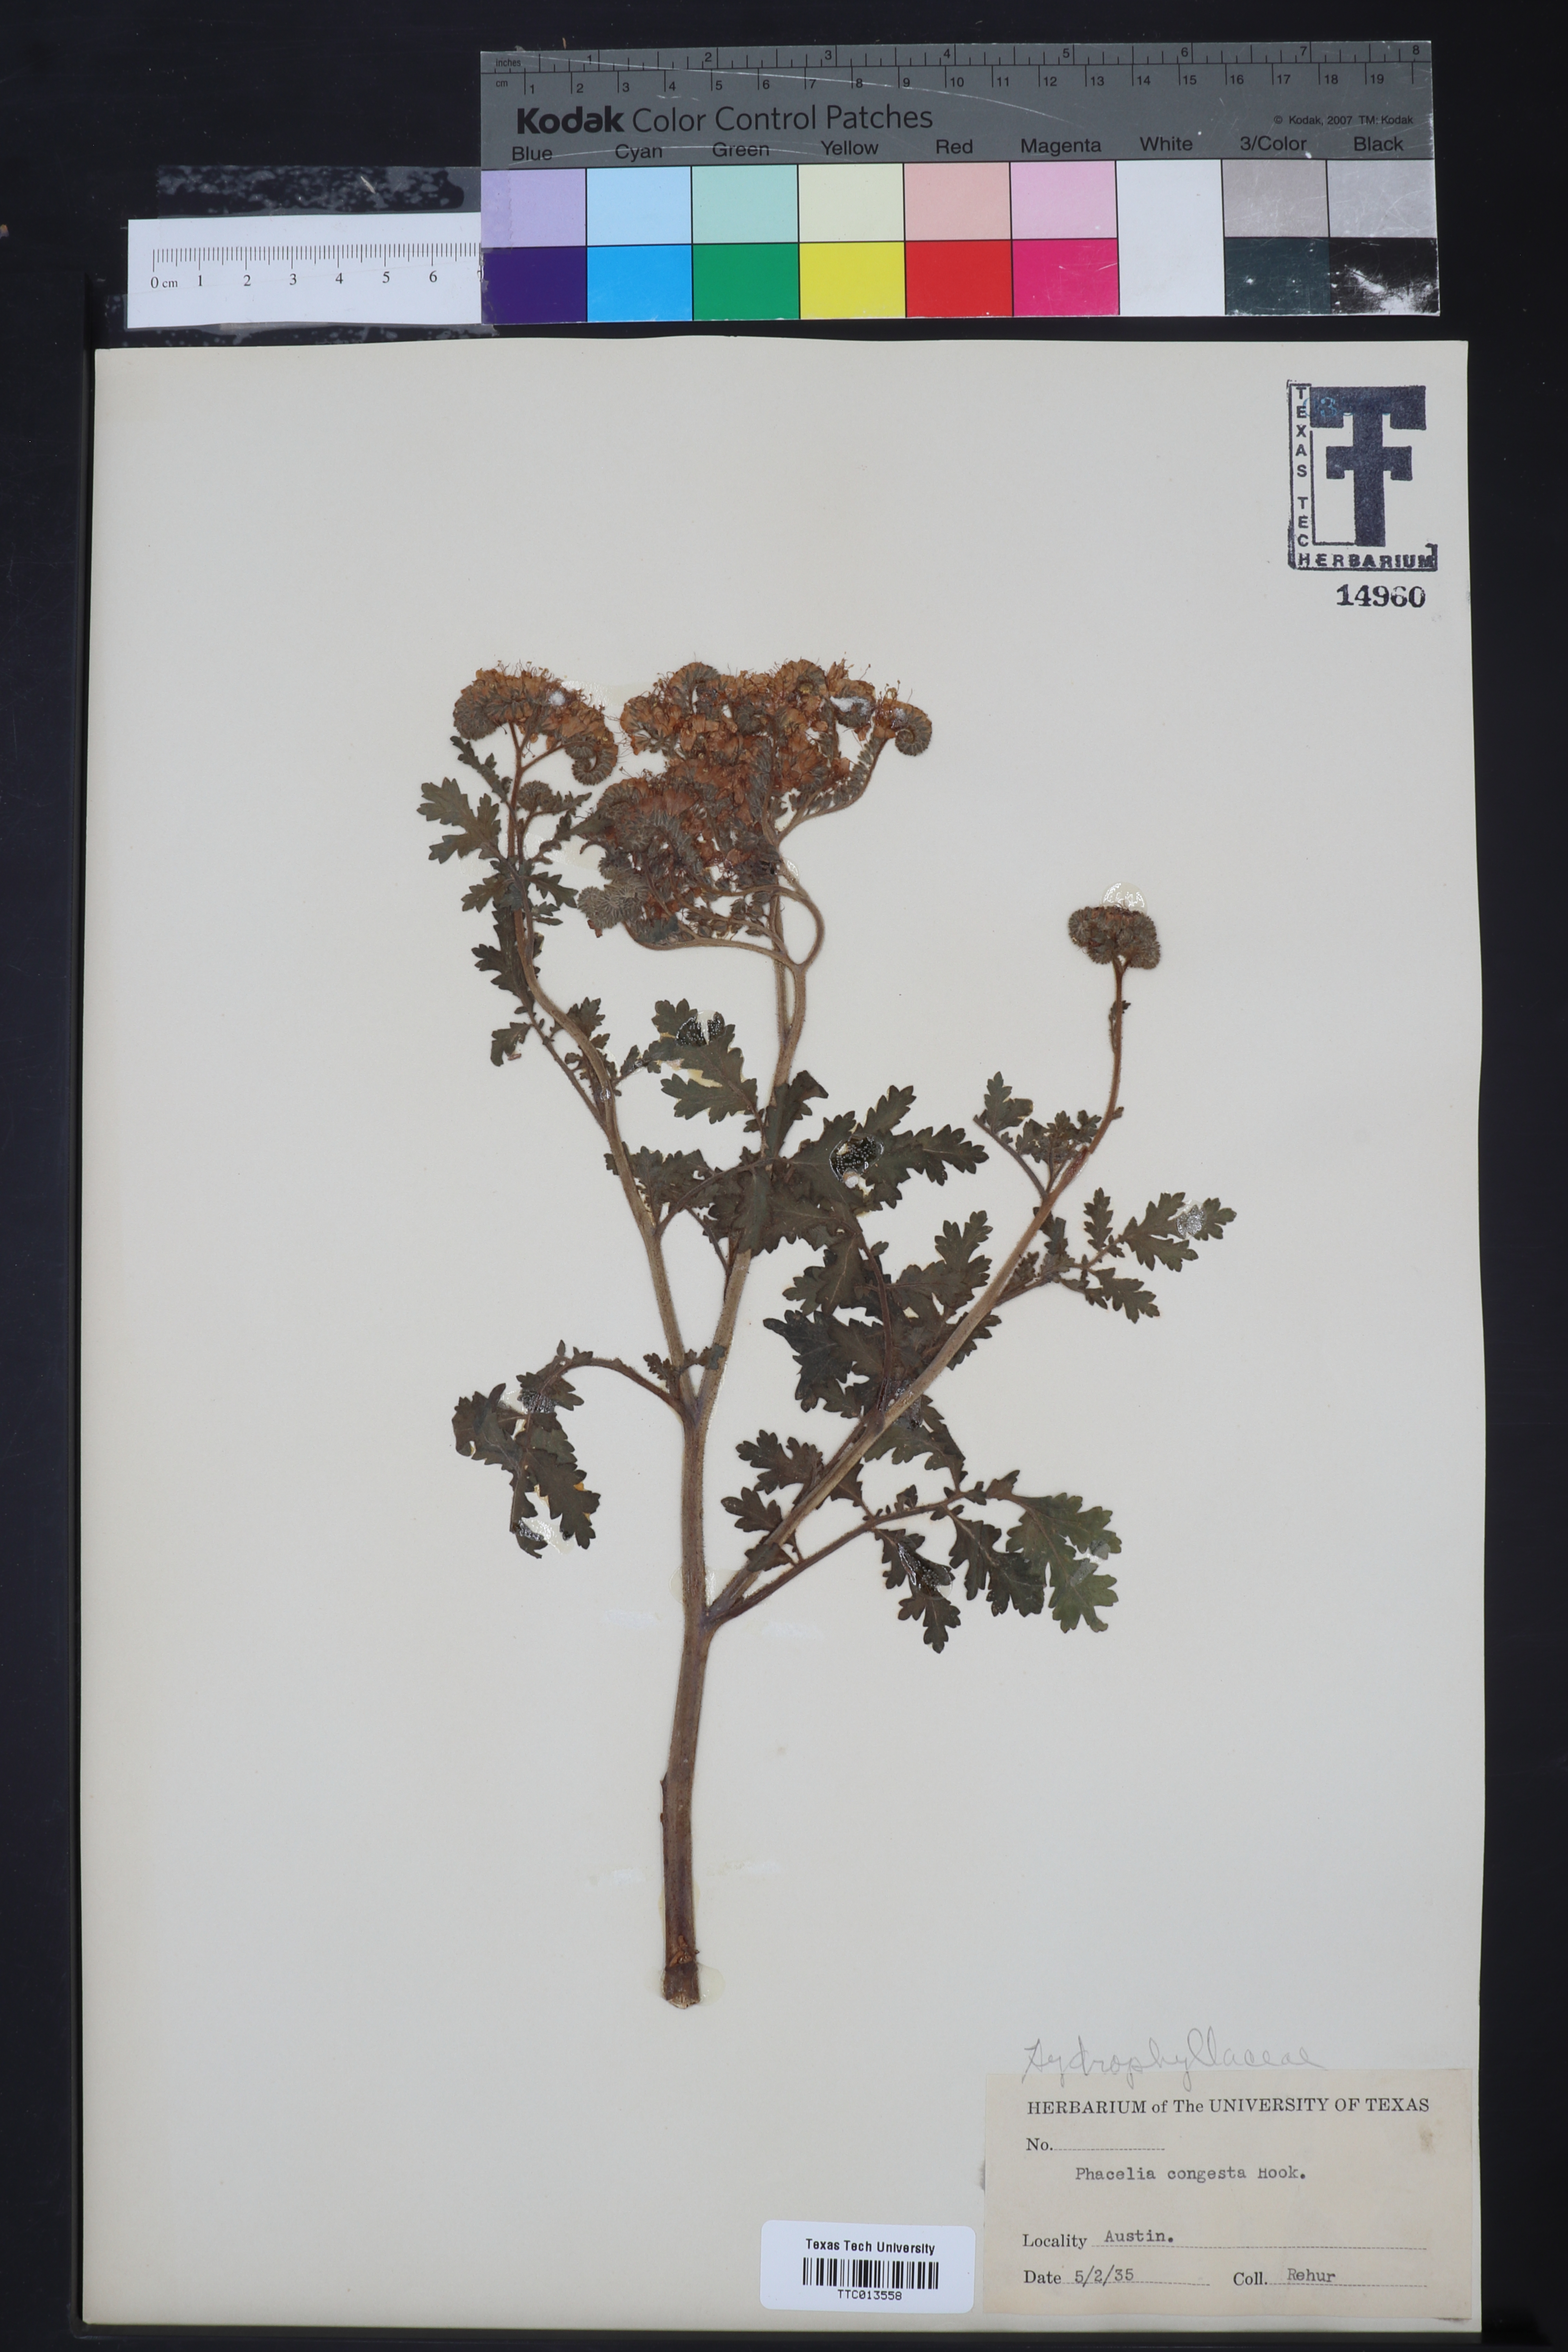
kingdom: Plantae
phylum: Tracheophyta
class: Magnoliopsida
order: Boraginales
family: Hydrophyllaceae
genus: Phacelia
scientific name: Phacelia congesta
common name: Blue curls
